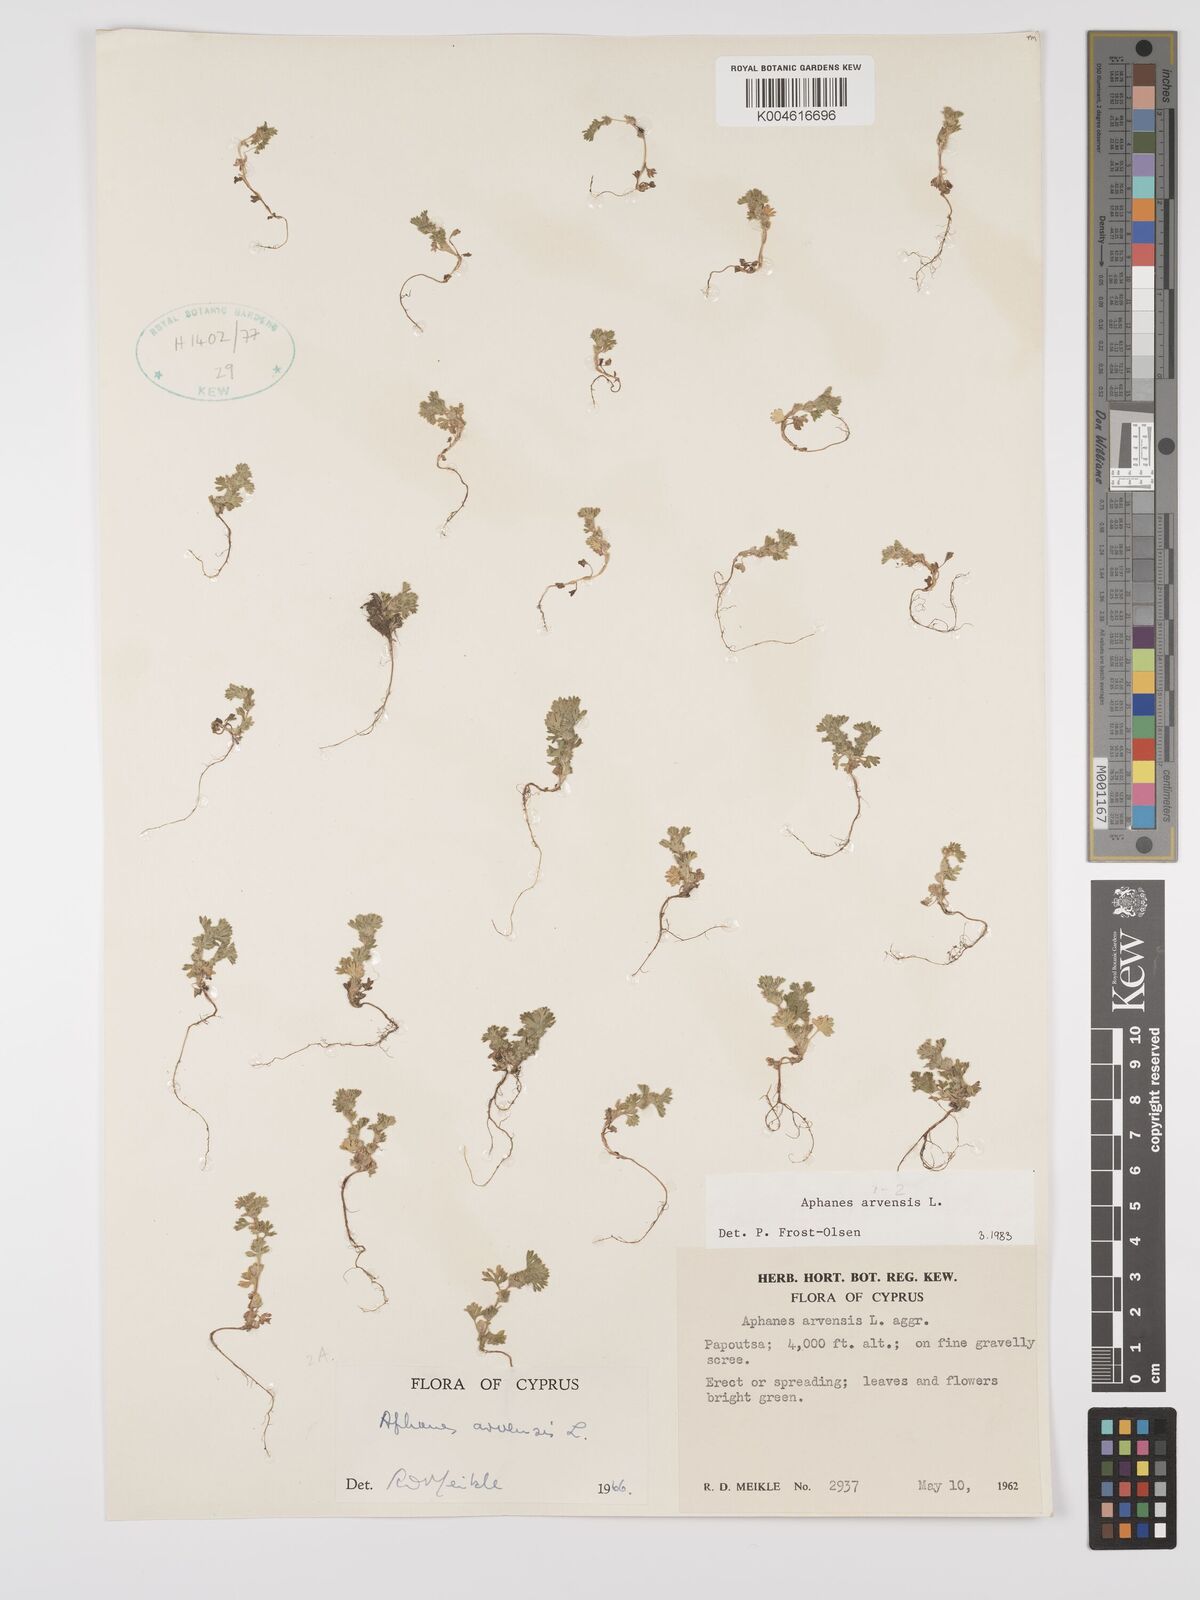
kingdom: Plantae
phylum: Tracheophyta
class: Magnoliopsida
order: Rosales
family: Rosaceae
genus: Aphanes
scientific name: Aphanes arvensis
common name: Parsley-piert
